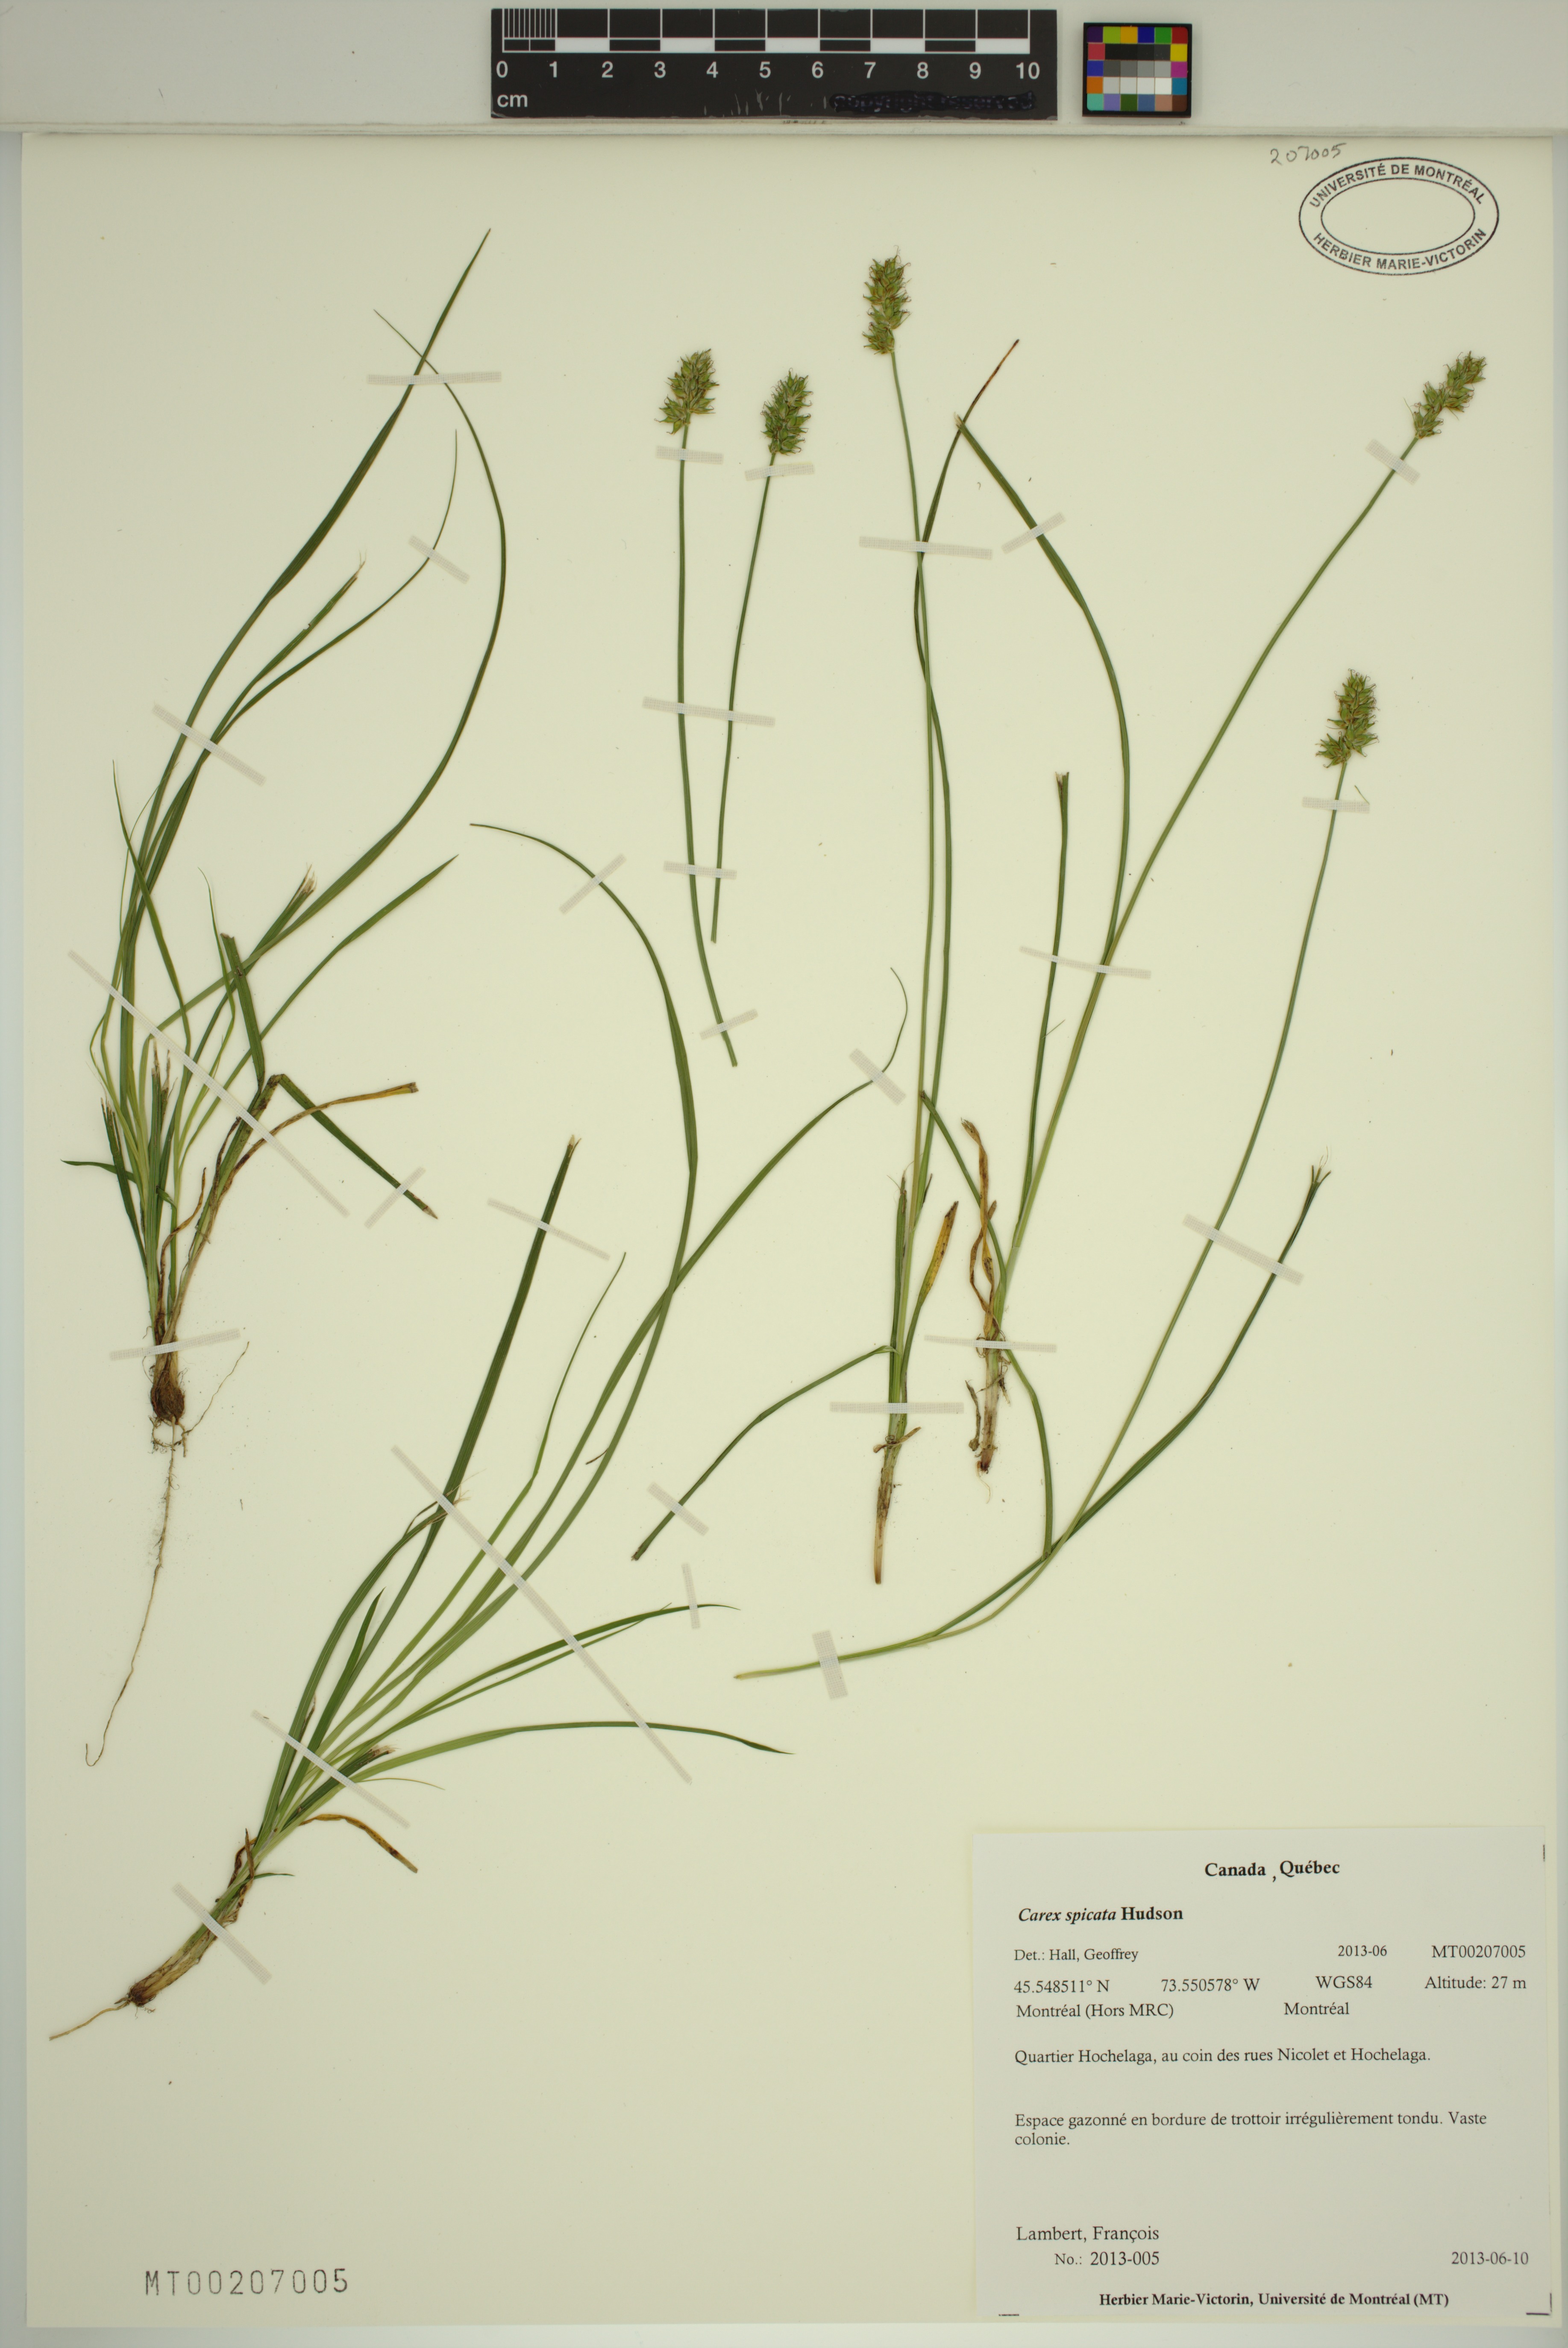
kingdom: Plantae
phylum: Tracheophyta
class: Liliopsida
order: Poales
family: Cyperaceae
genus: Carex
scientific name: Carex spicata
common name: Spiked sedge
